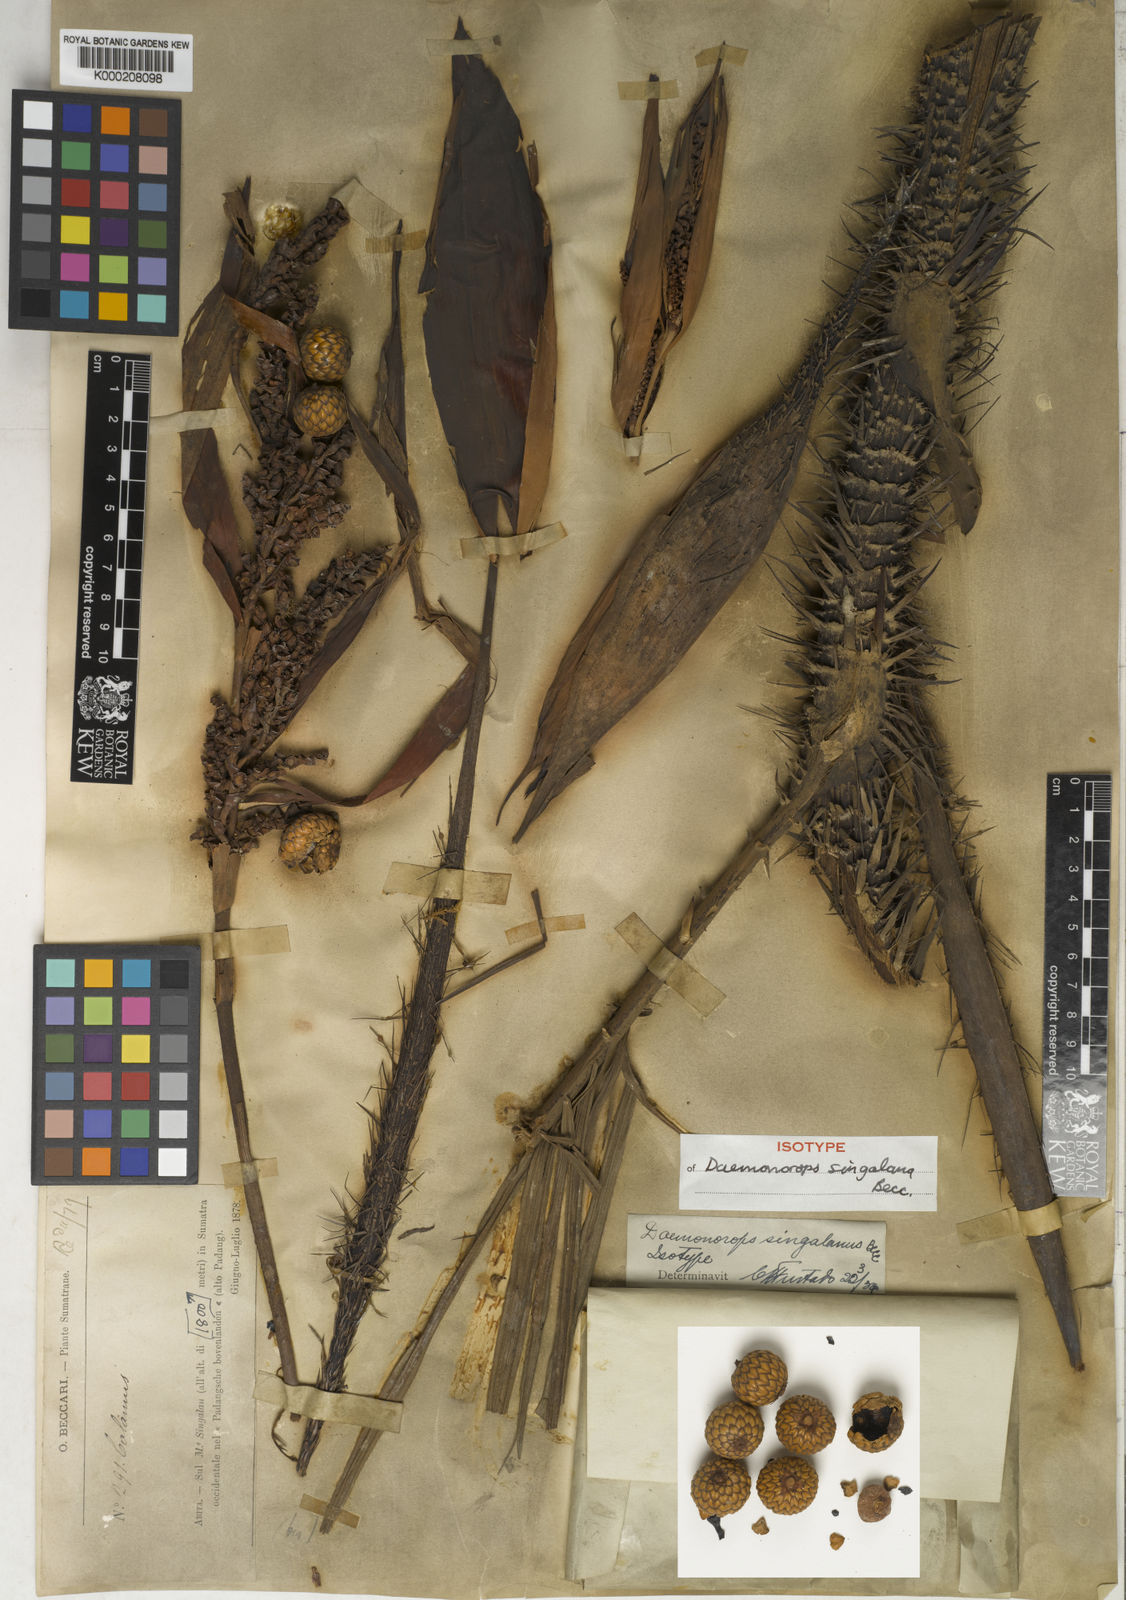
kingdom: Plantae
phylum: Tracheophyta
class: Liliopsida
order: Arecales
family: Arecaceae
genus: Calamus
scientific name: Calamus melanochaetes
